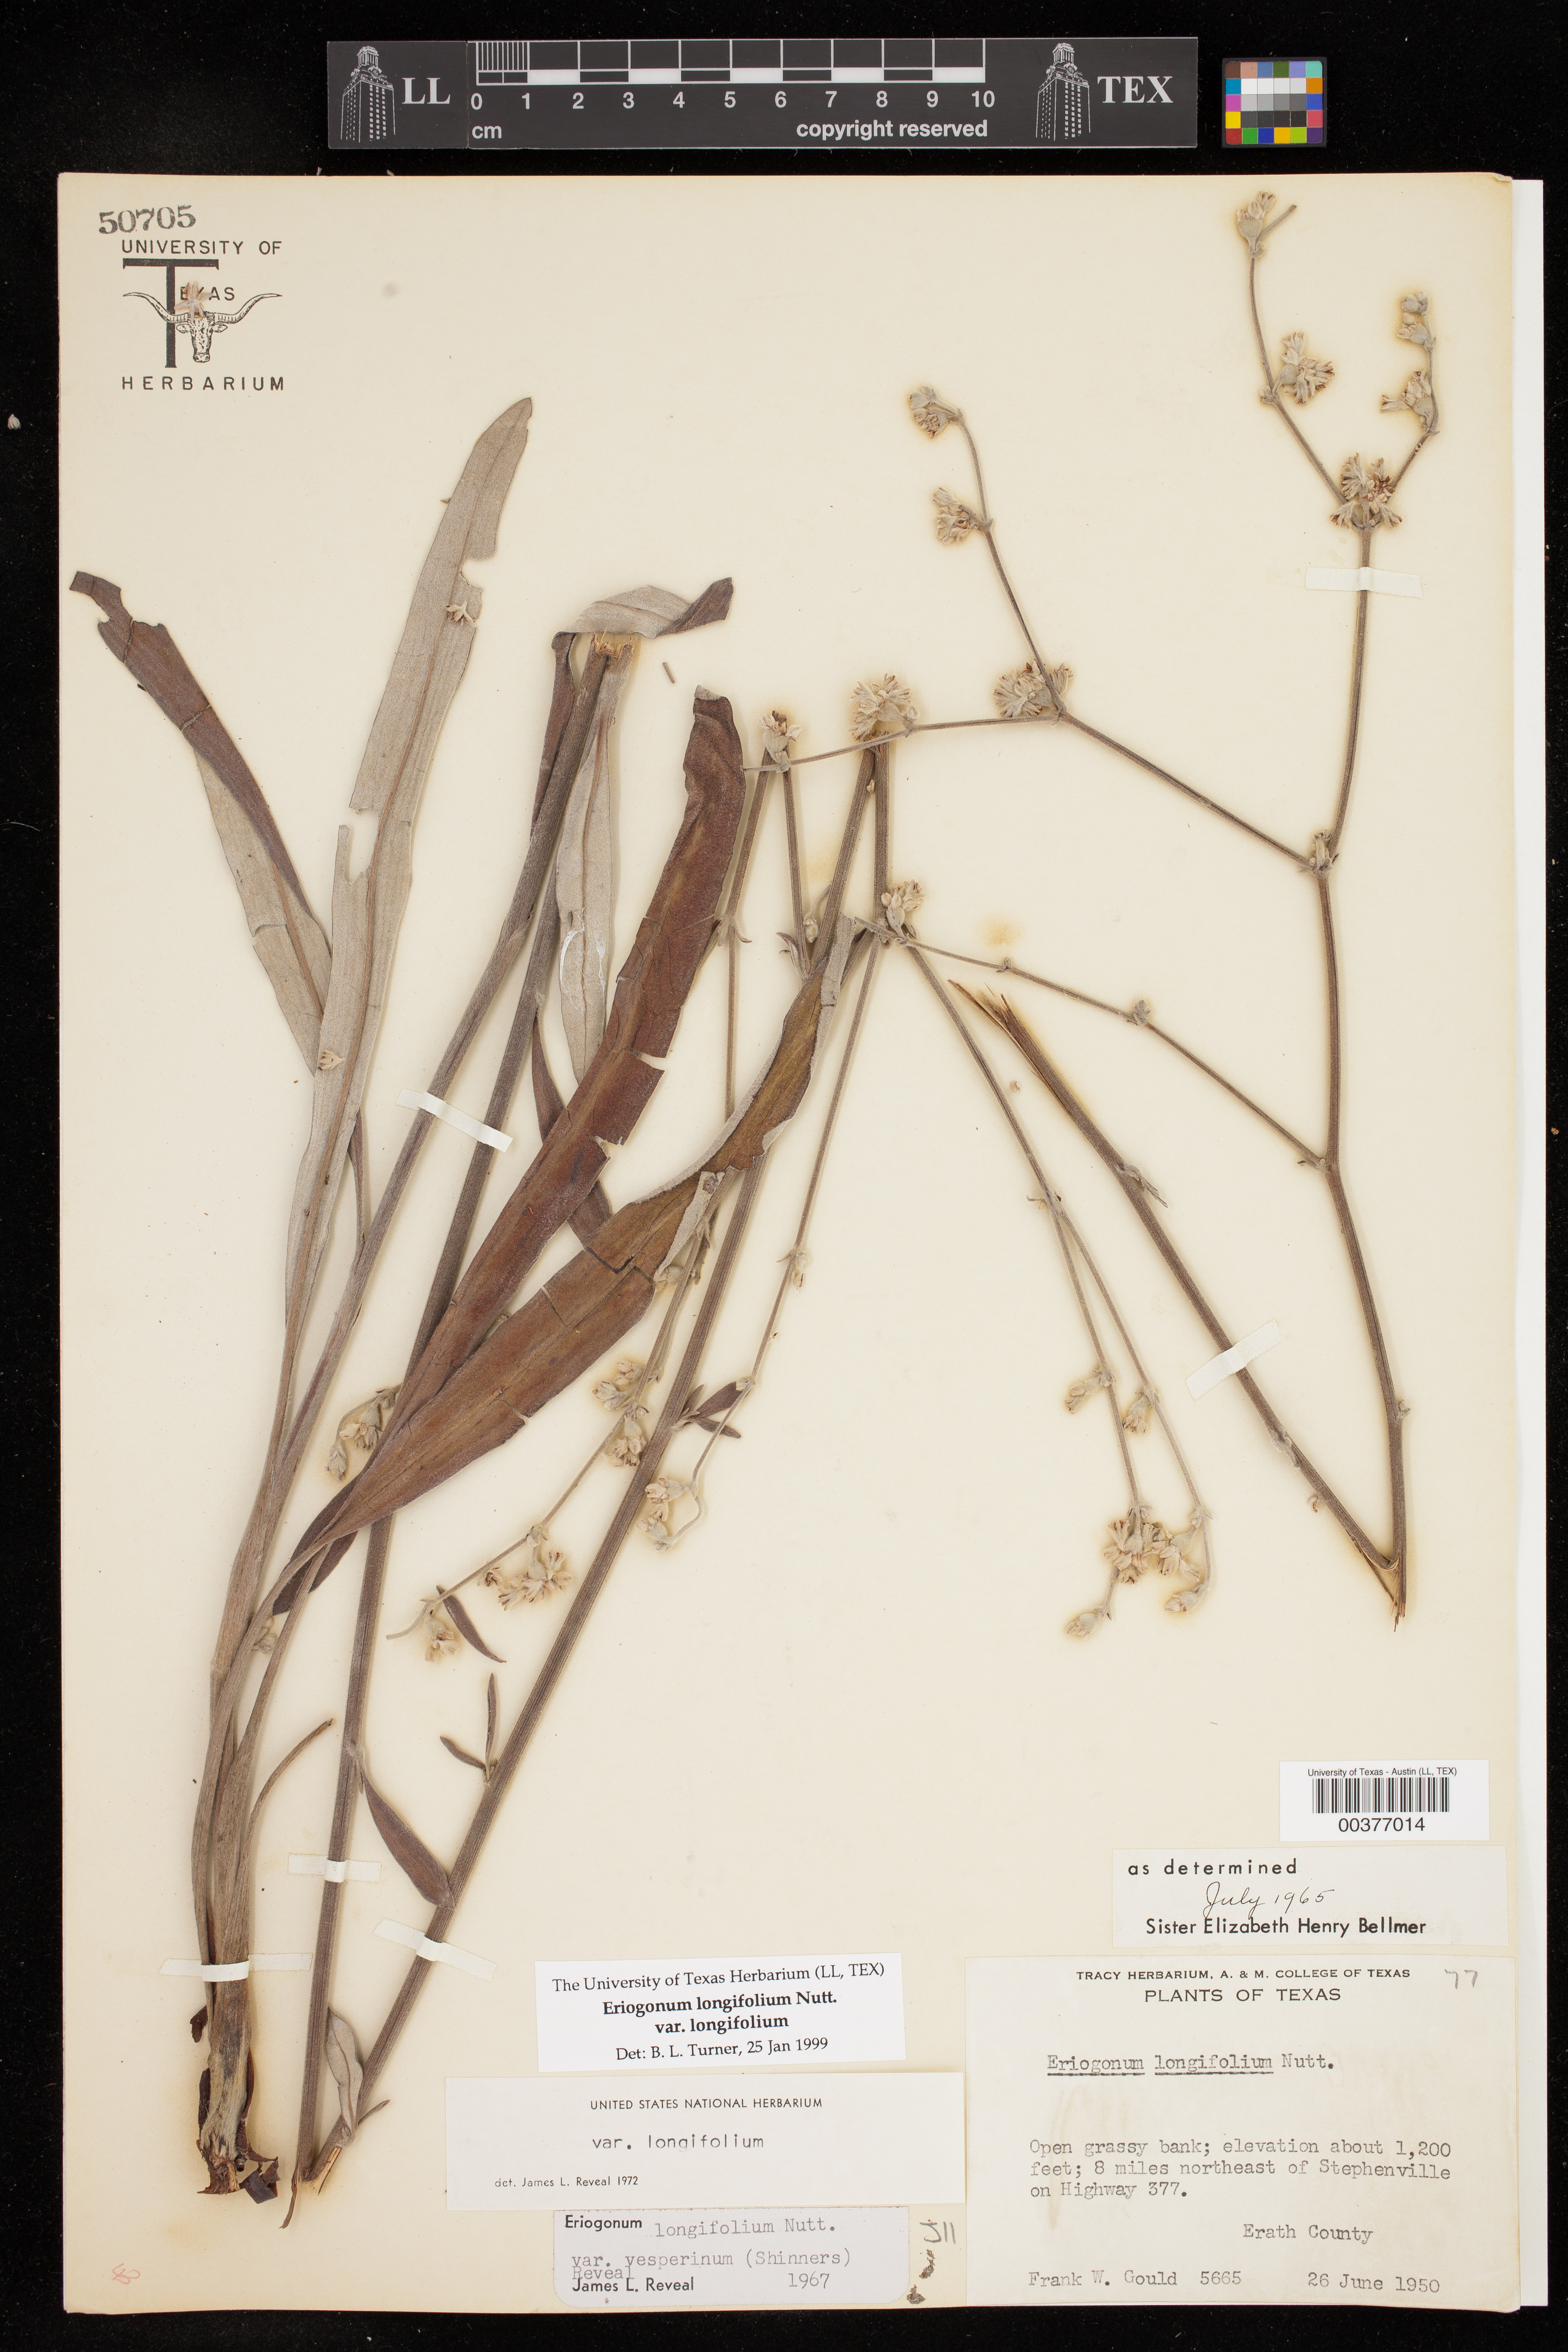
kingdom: Plantae
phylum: Tracheophyta
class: Magnoliopsida
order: Caryophyllales
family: Polygonaceae
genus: Eriogonum
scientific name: Eriogonum longifolium
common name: Longleaf wild buckwheat
